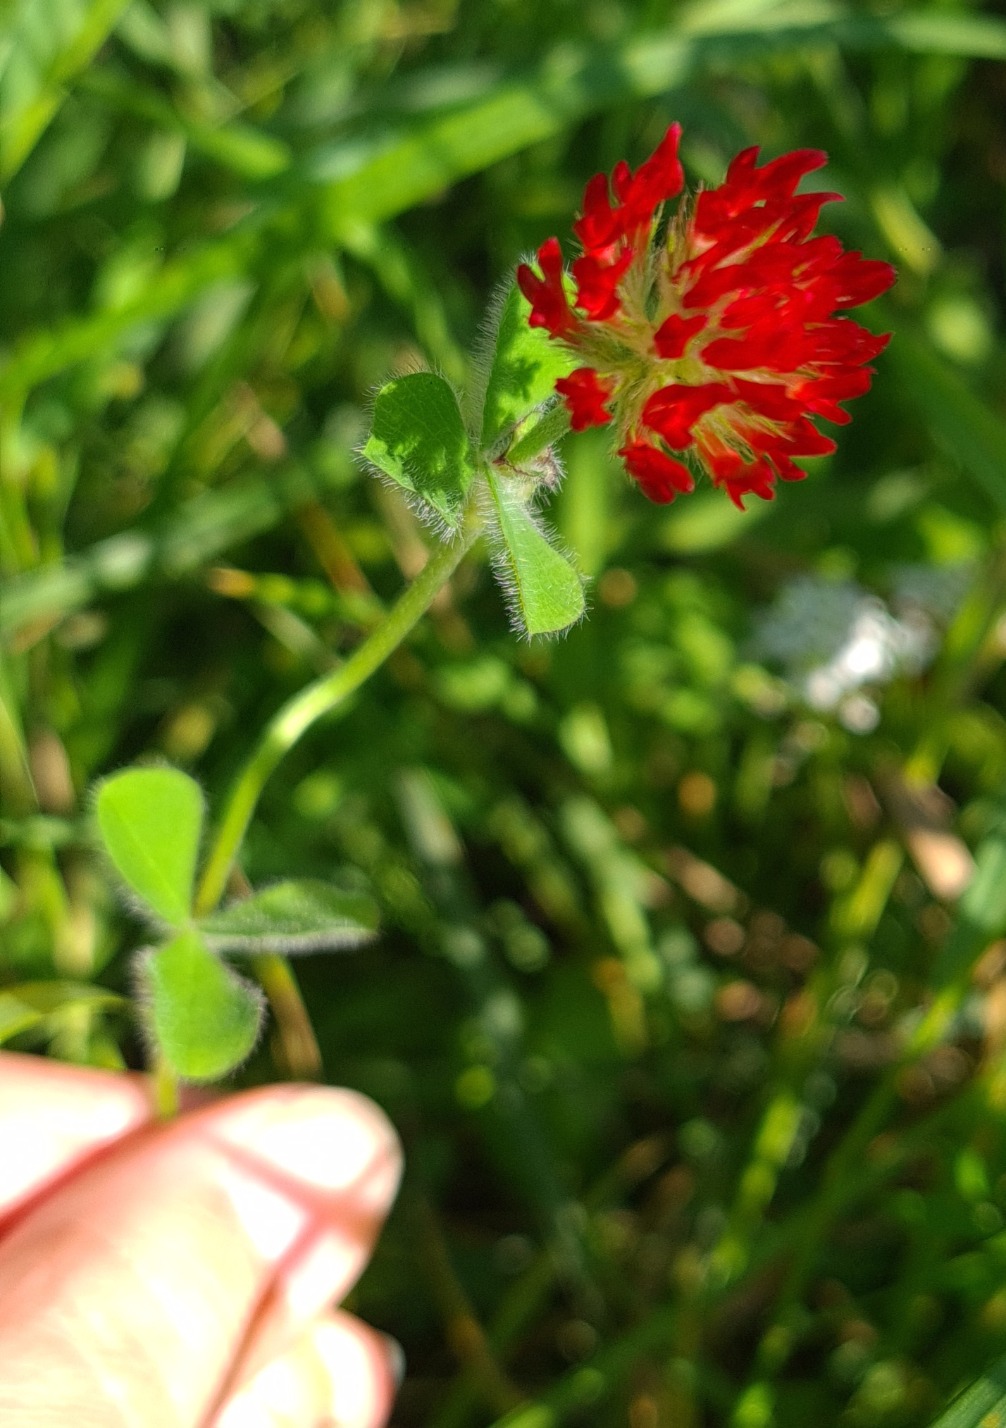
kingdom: Plantae
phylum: Tracheophyta
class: Magnoliopsida
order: Fabales
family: Fabaceae
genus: Trifolium
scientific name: Trifolium incarnatum
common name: Blod-kløver
